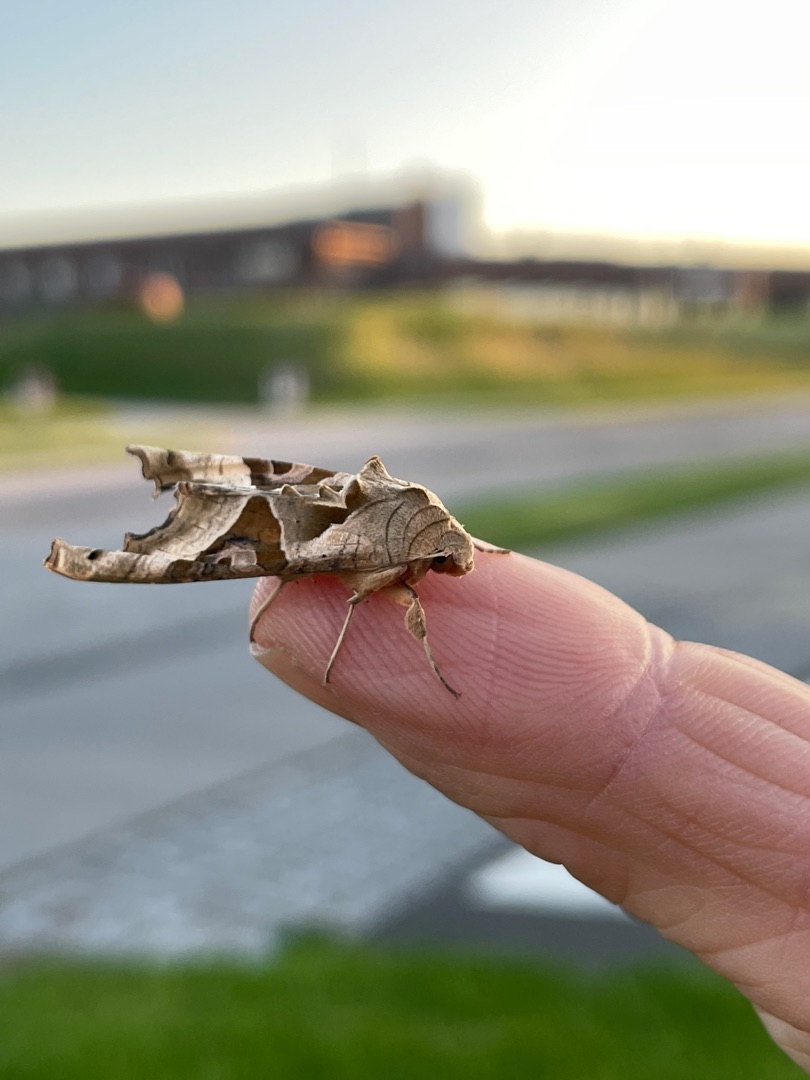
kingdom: Animalia
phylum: Arthropoda
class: Insecta
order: Lepidoptera
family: Noctuidae
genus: Phlogophora
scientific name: Phlogophora meticulosa
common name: Agatugle
